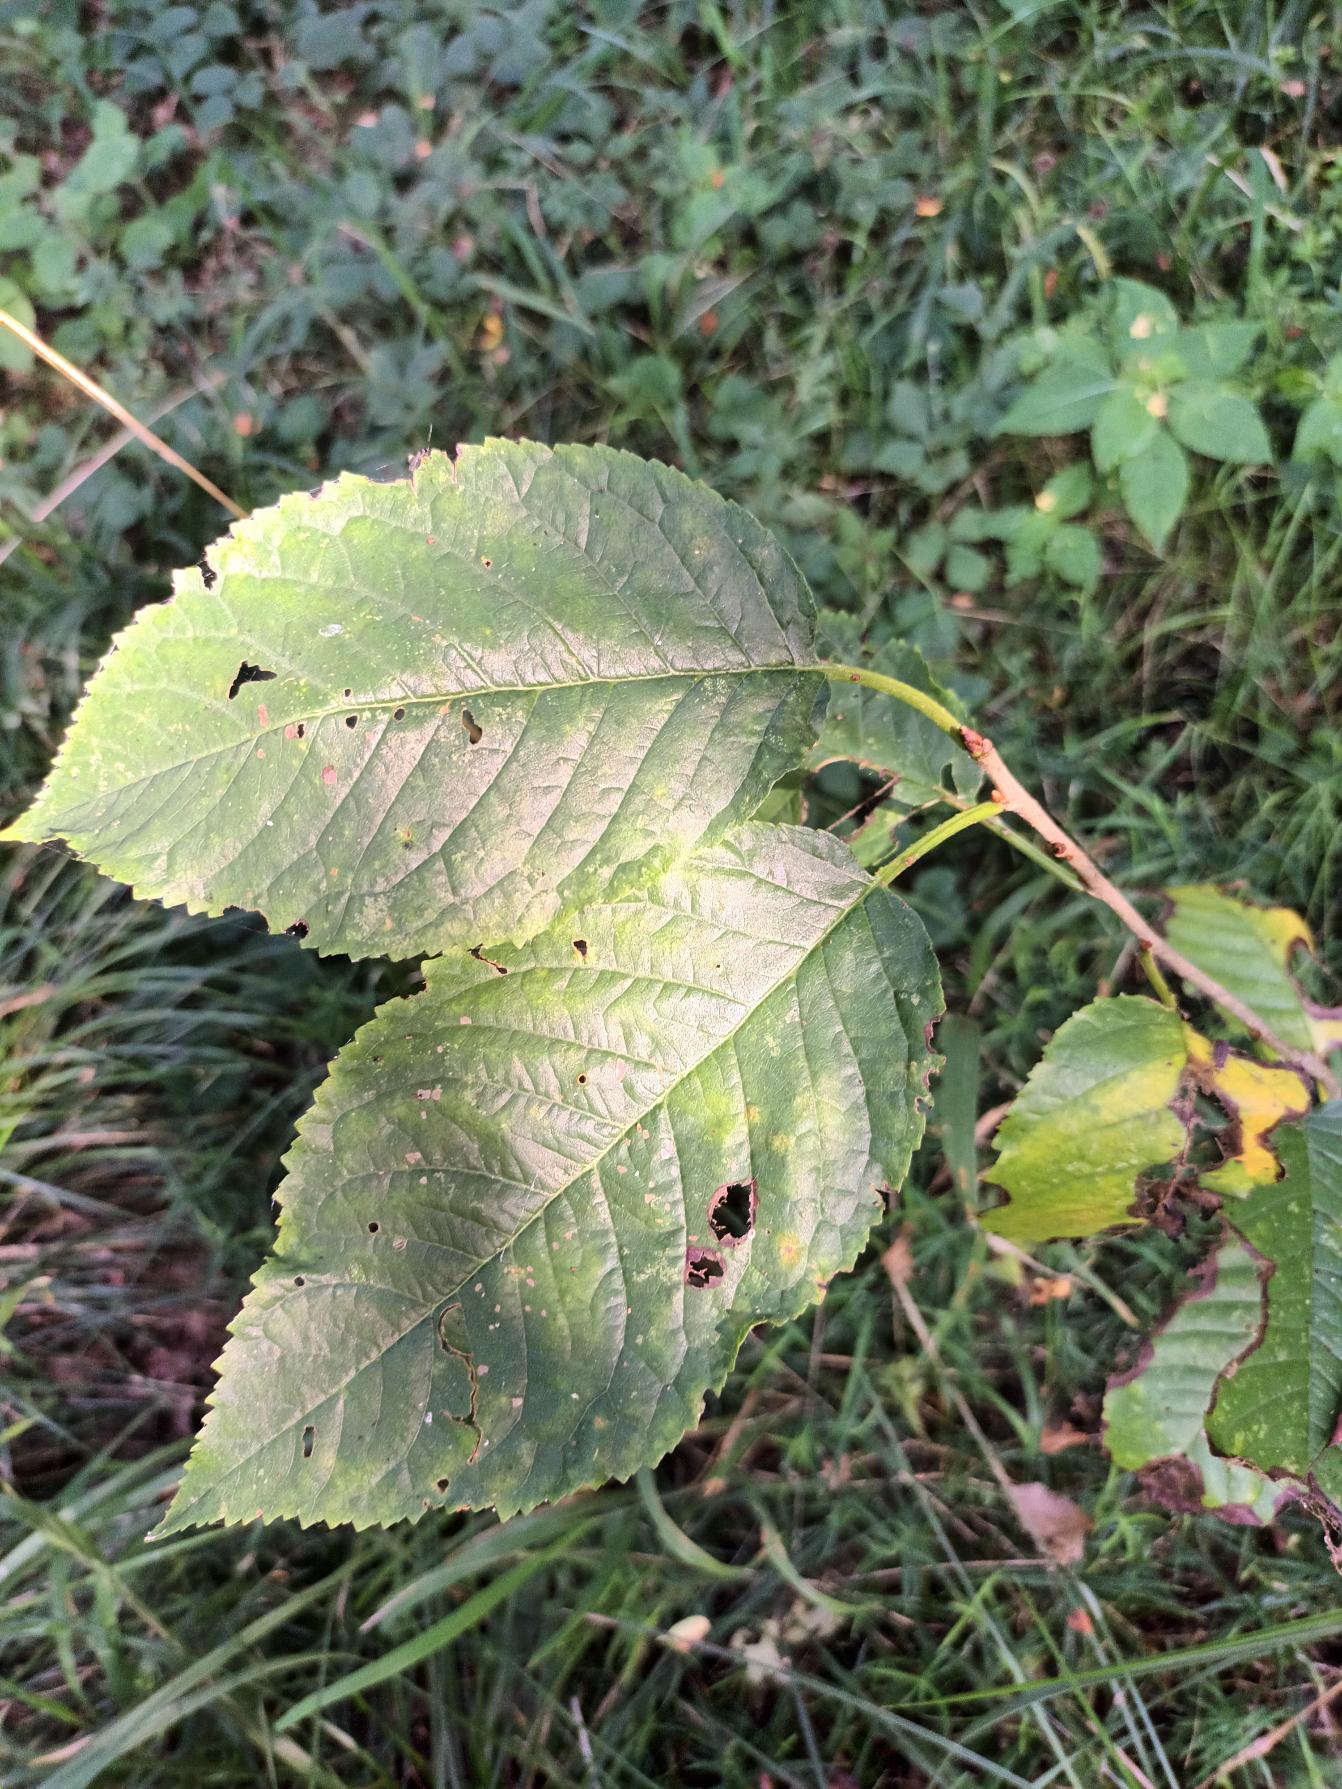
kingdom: Plantae
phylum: Tracheophyta
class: Magnoliopsida
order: Rosales
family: Rosaceae
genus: Prunus
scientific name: Prunus avium
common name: Fugle-kirsebær
